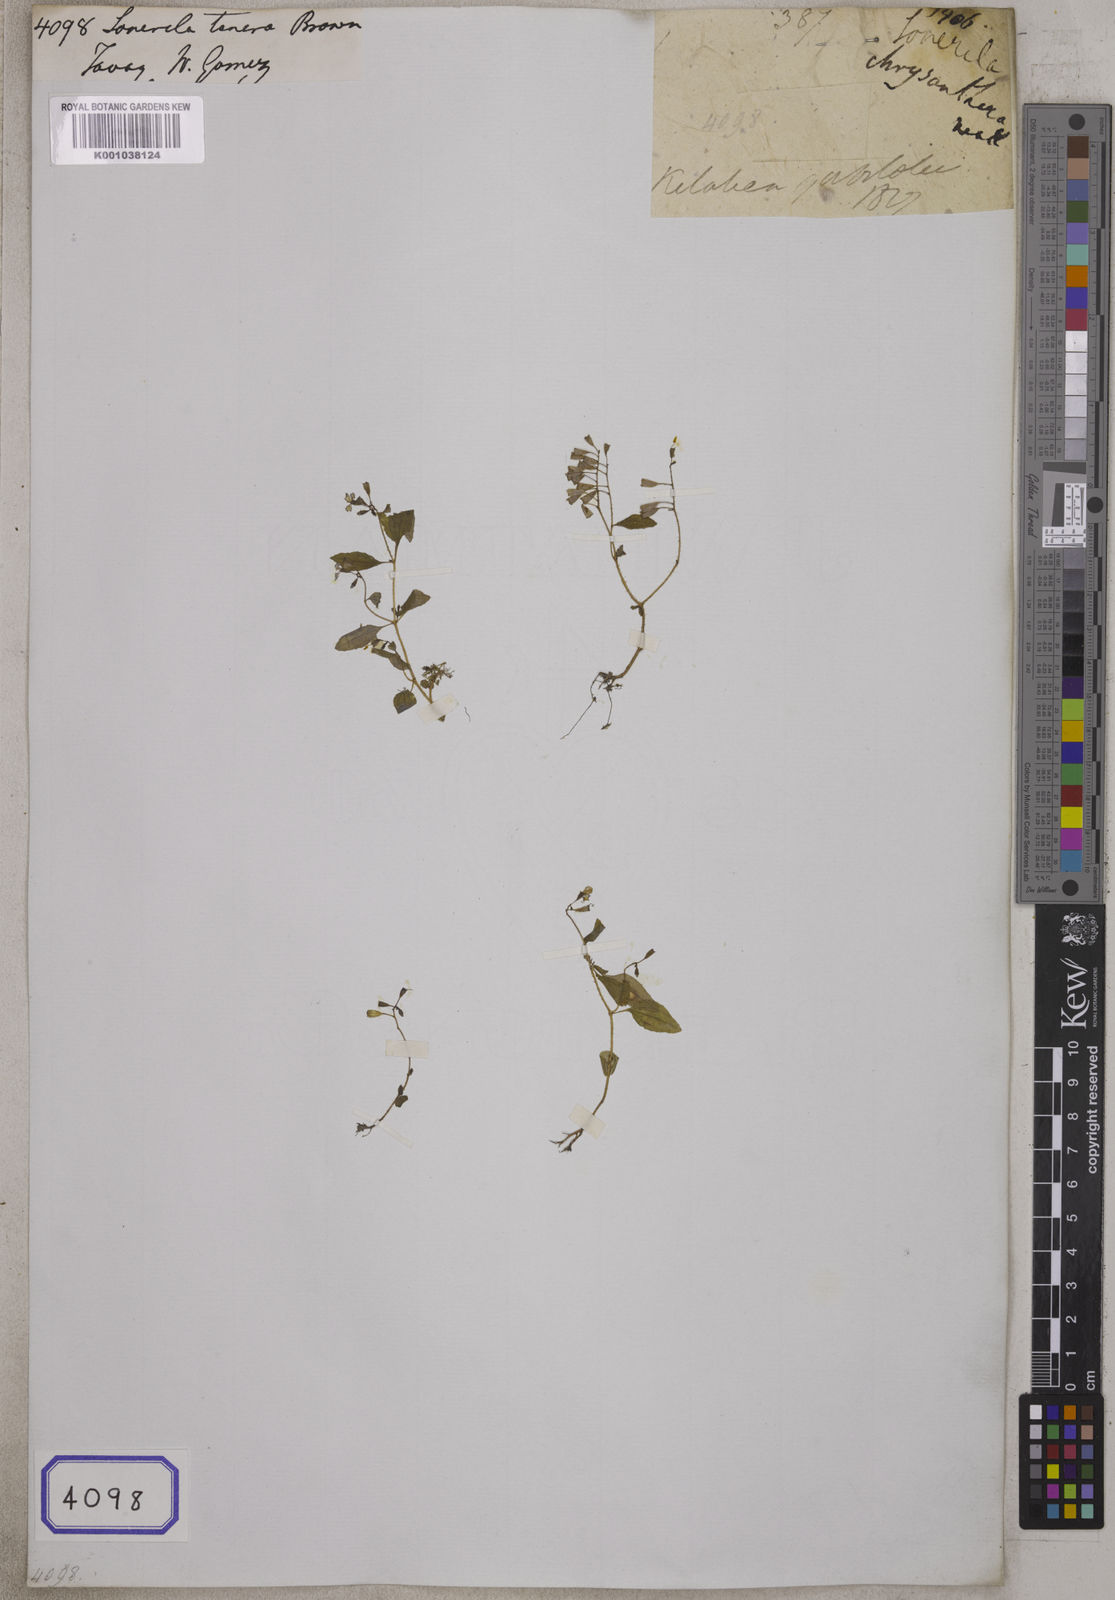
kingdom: Plantae
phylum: Tracheophyta
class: Magnoliopsida
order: Myrtales
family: Melastomataceae
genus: Sonerila
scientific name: Sonerila
